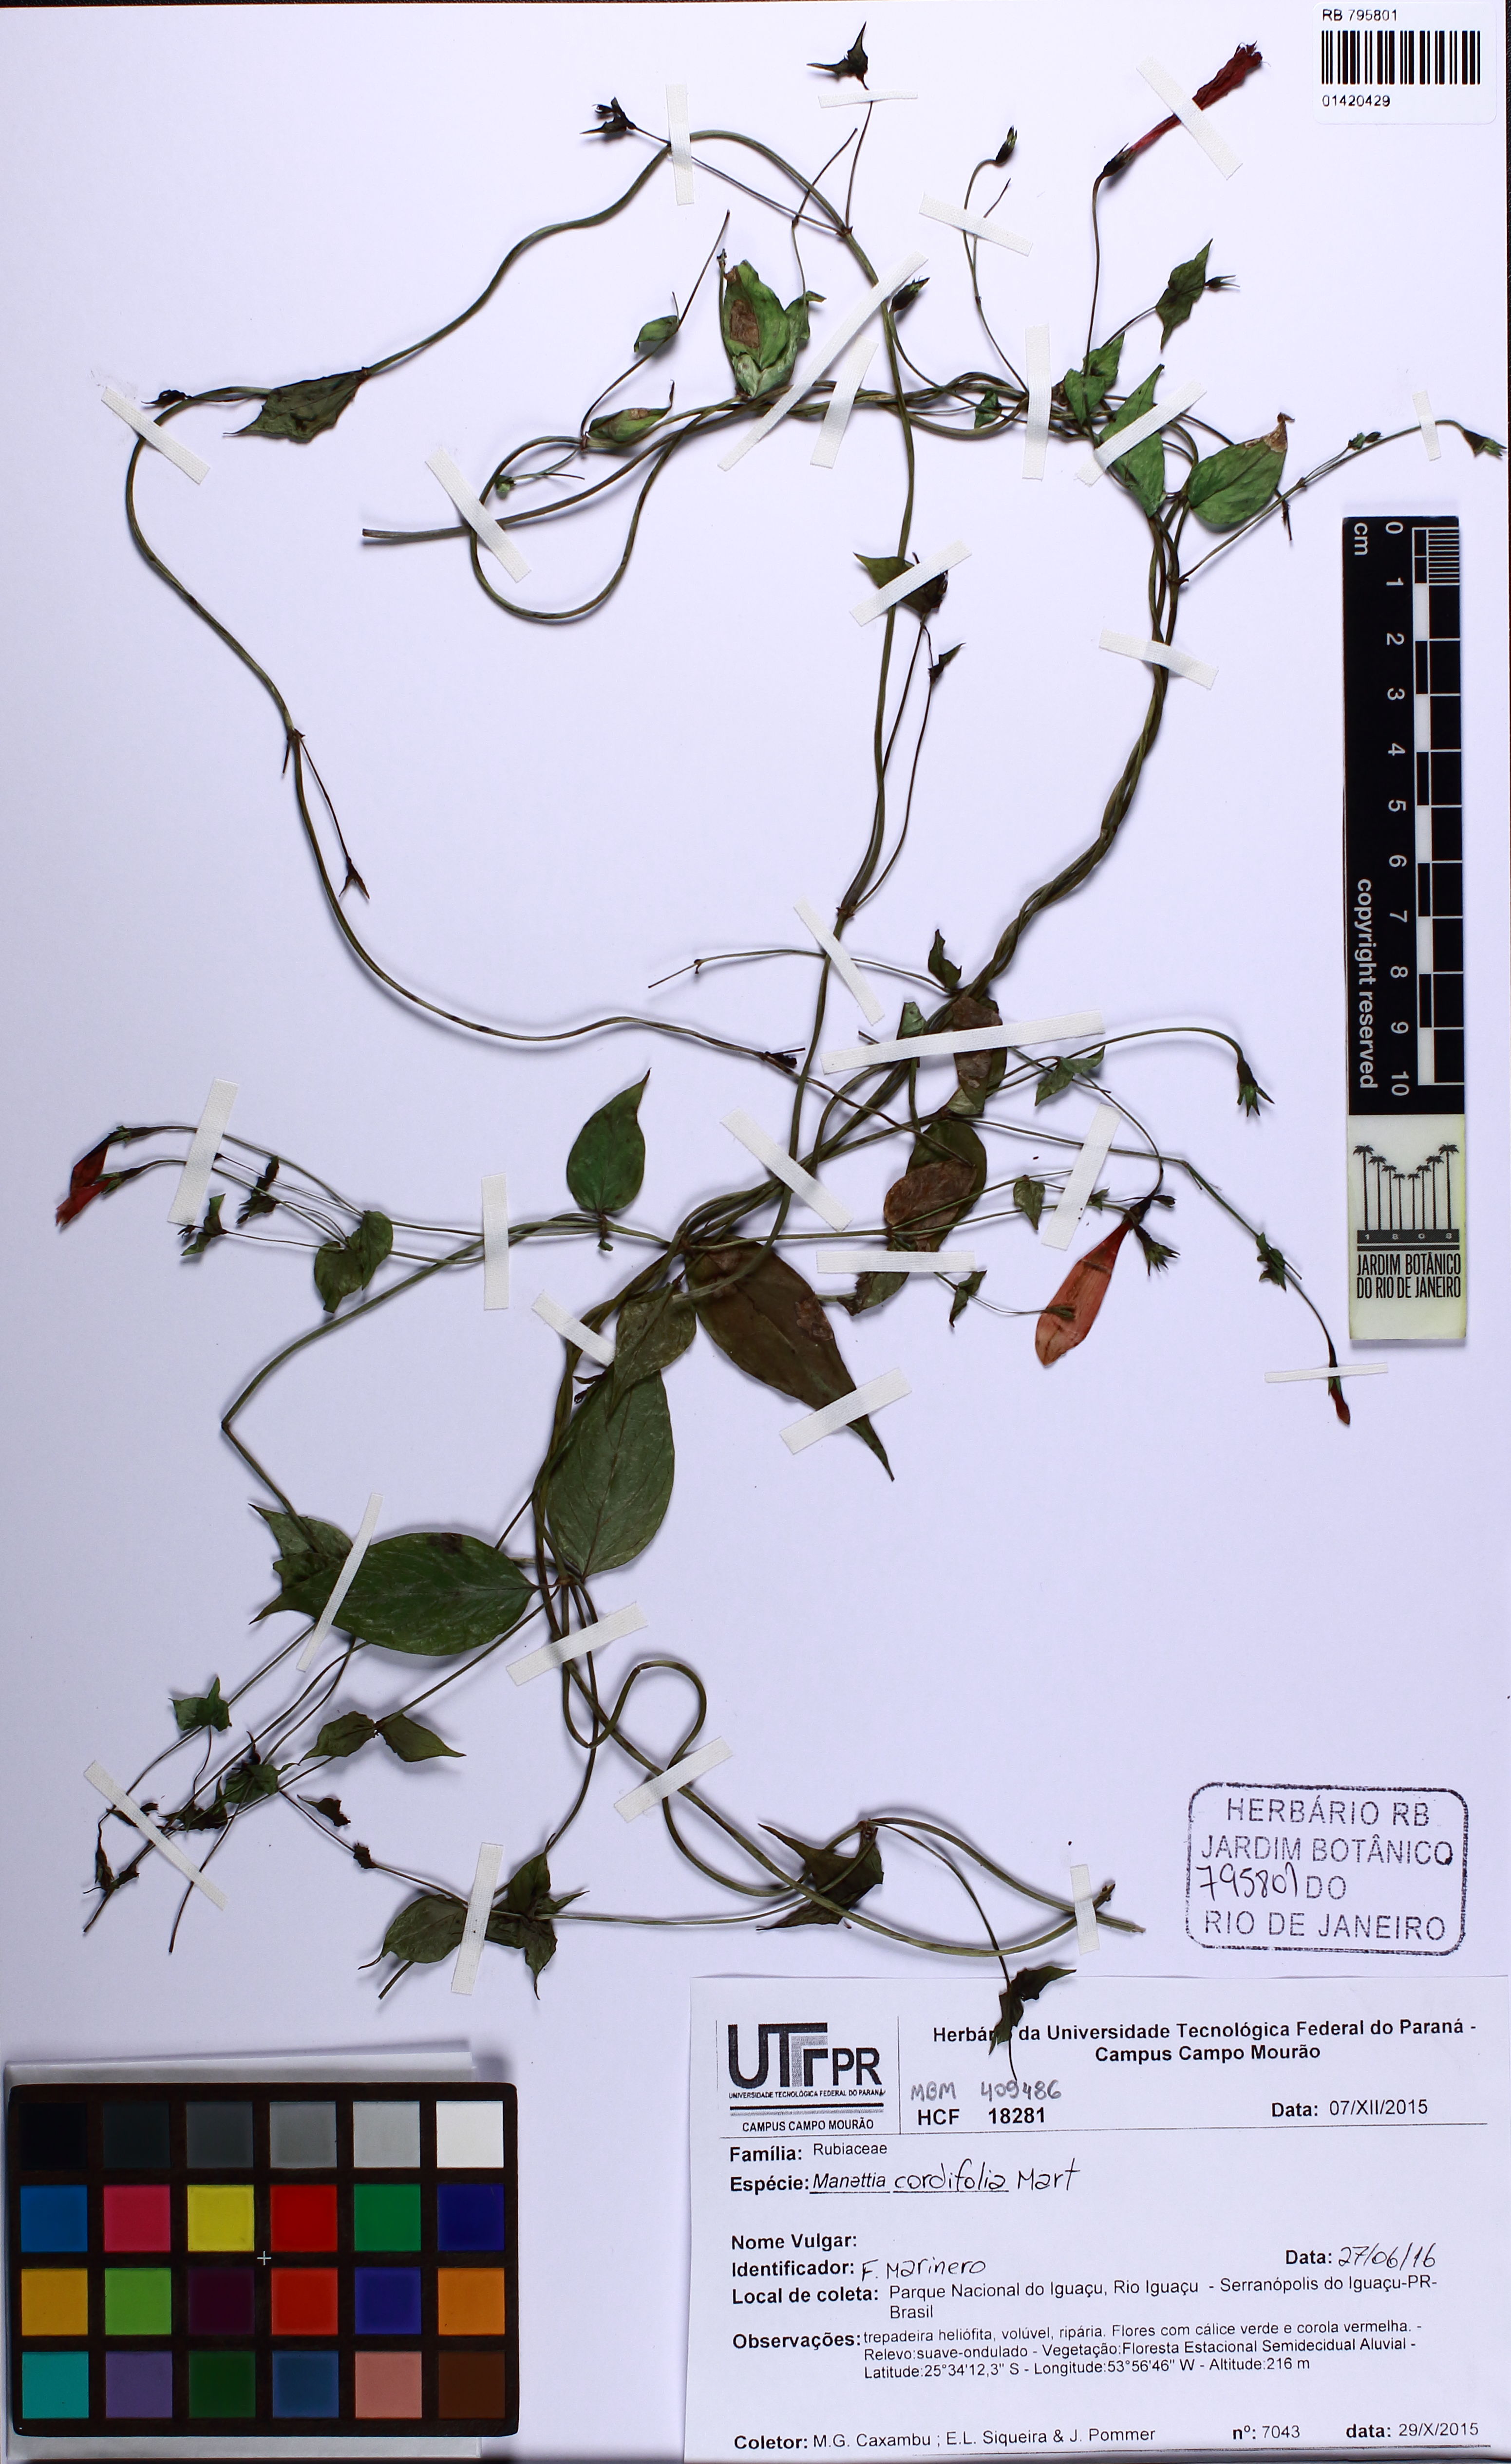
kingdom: Plantae
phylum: Tracheophyta
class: Magnoliopsida
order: Gentianales
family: Rubiaceae
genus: Manettia
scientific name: Manettia cordifolia
